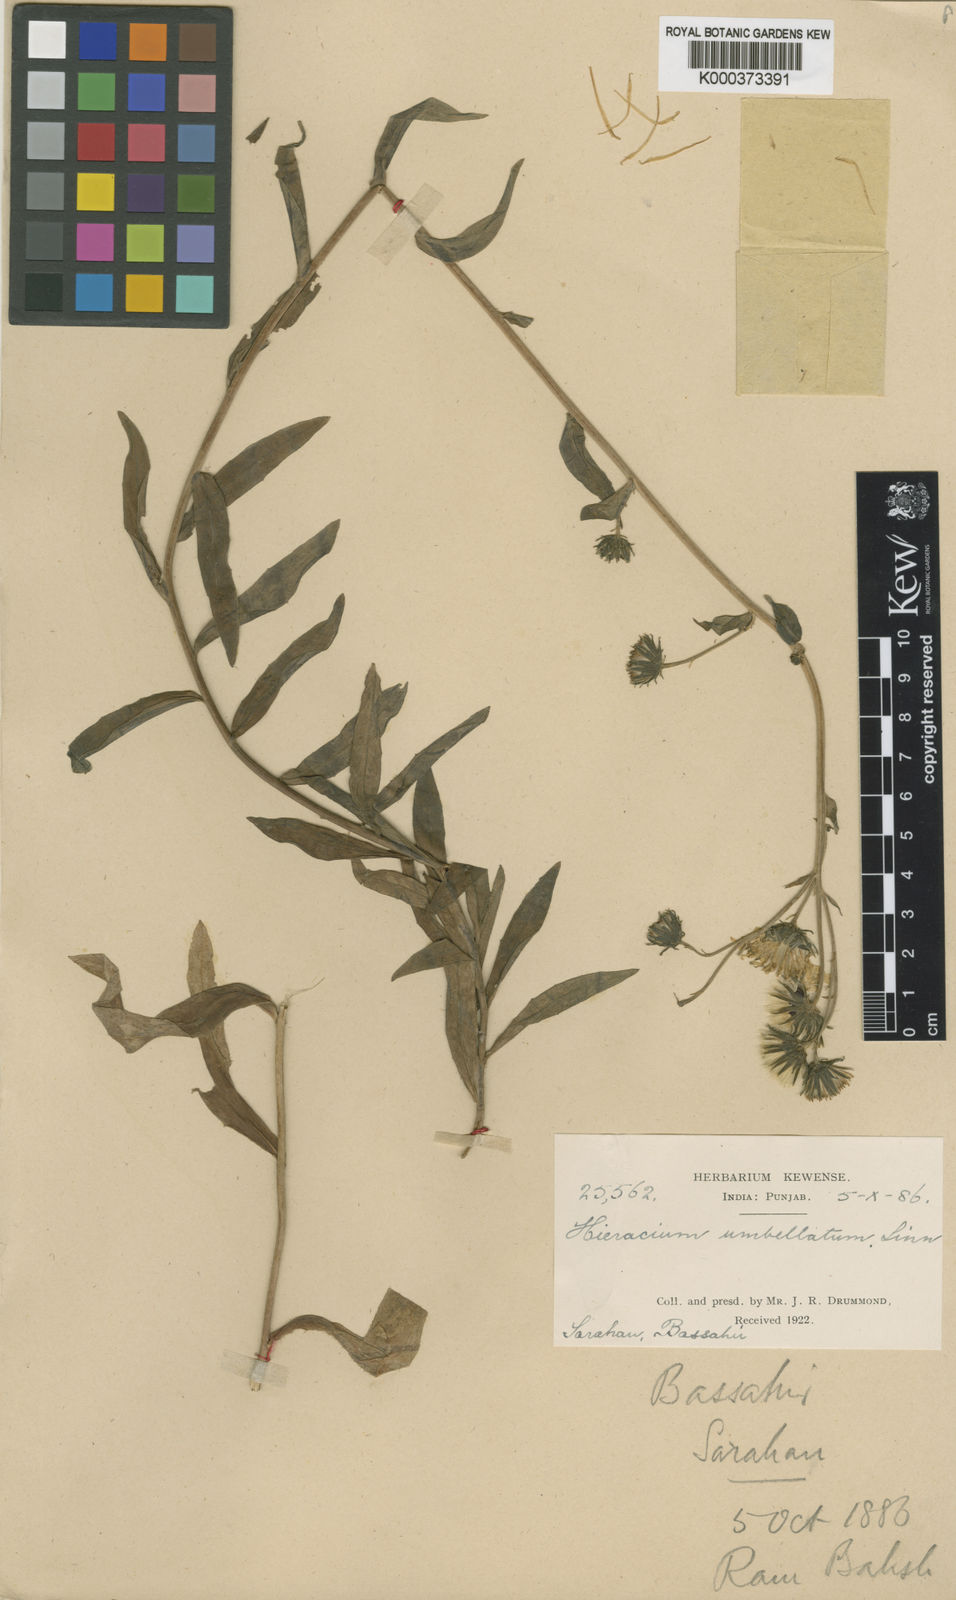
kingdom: Plantae
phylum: Tracheophyta
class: Magnoliopsida
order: Asterales
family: Asteraceae
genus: Hieracium
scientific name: Hieracium umbellatum
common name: Northern hawkweed
